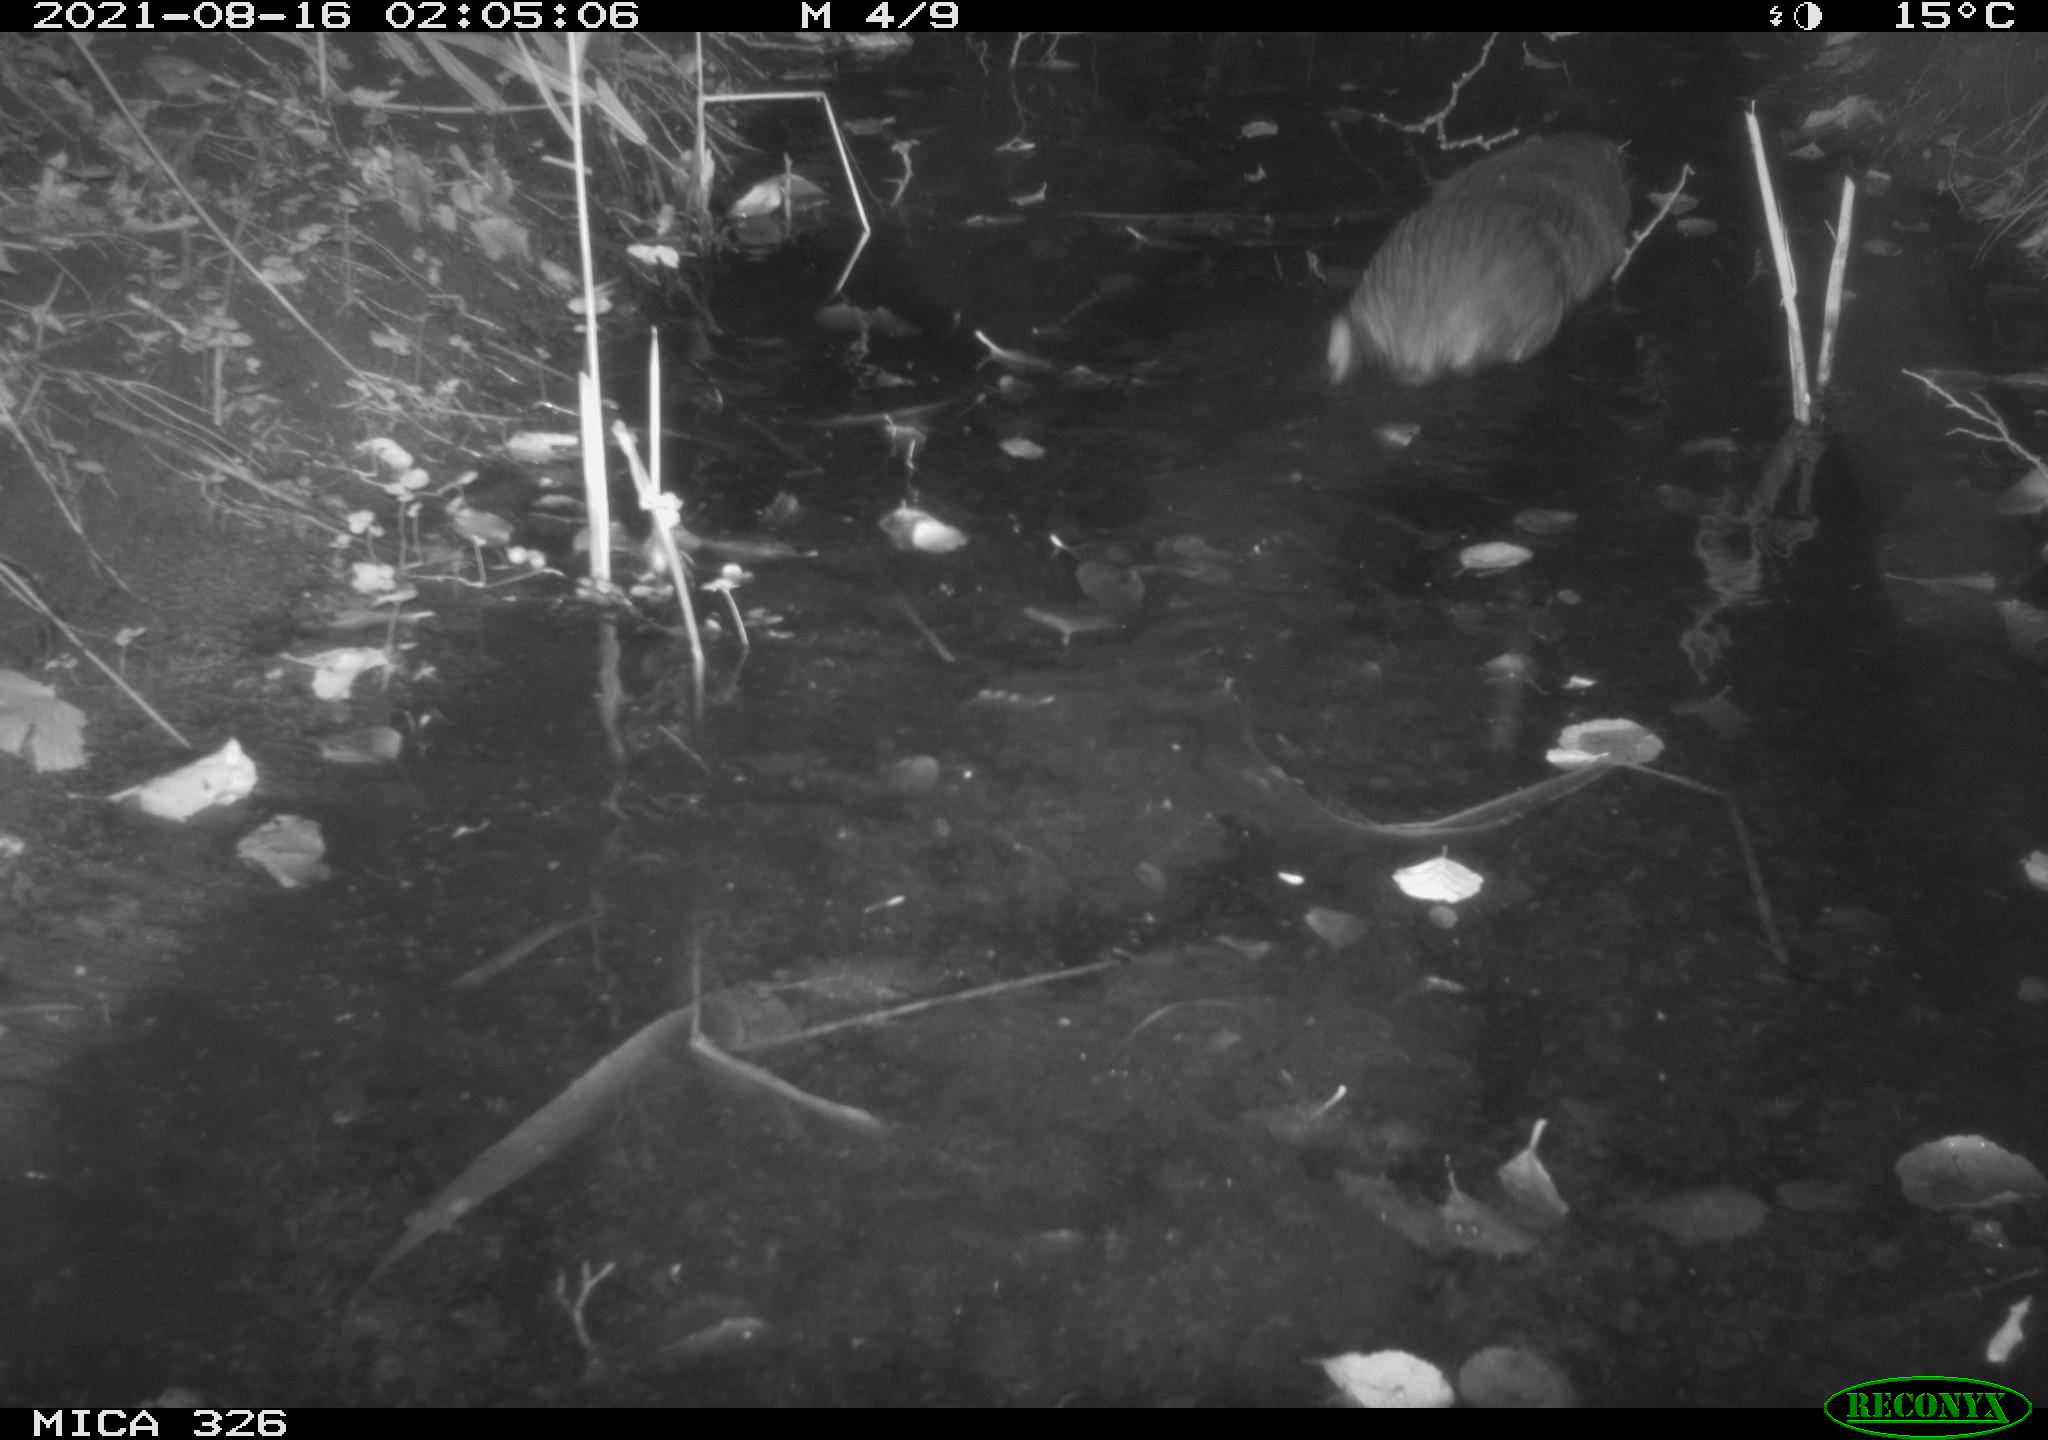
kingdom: Animalia
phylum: Chordata
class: Mammalia
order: Rodentia
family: Myocastoridae
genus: Myocastor
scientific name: Myocastor coypus
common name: Coypu
